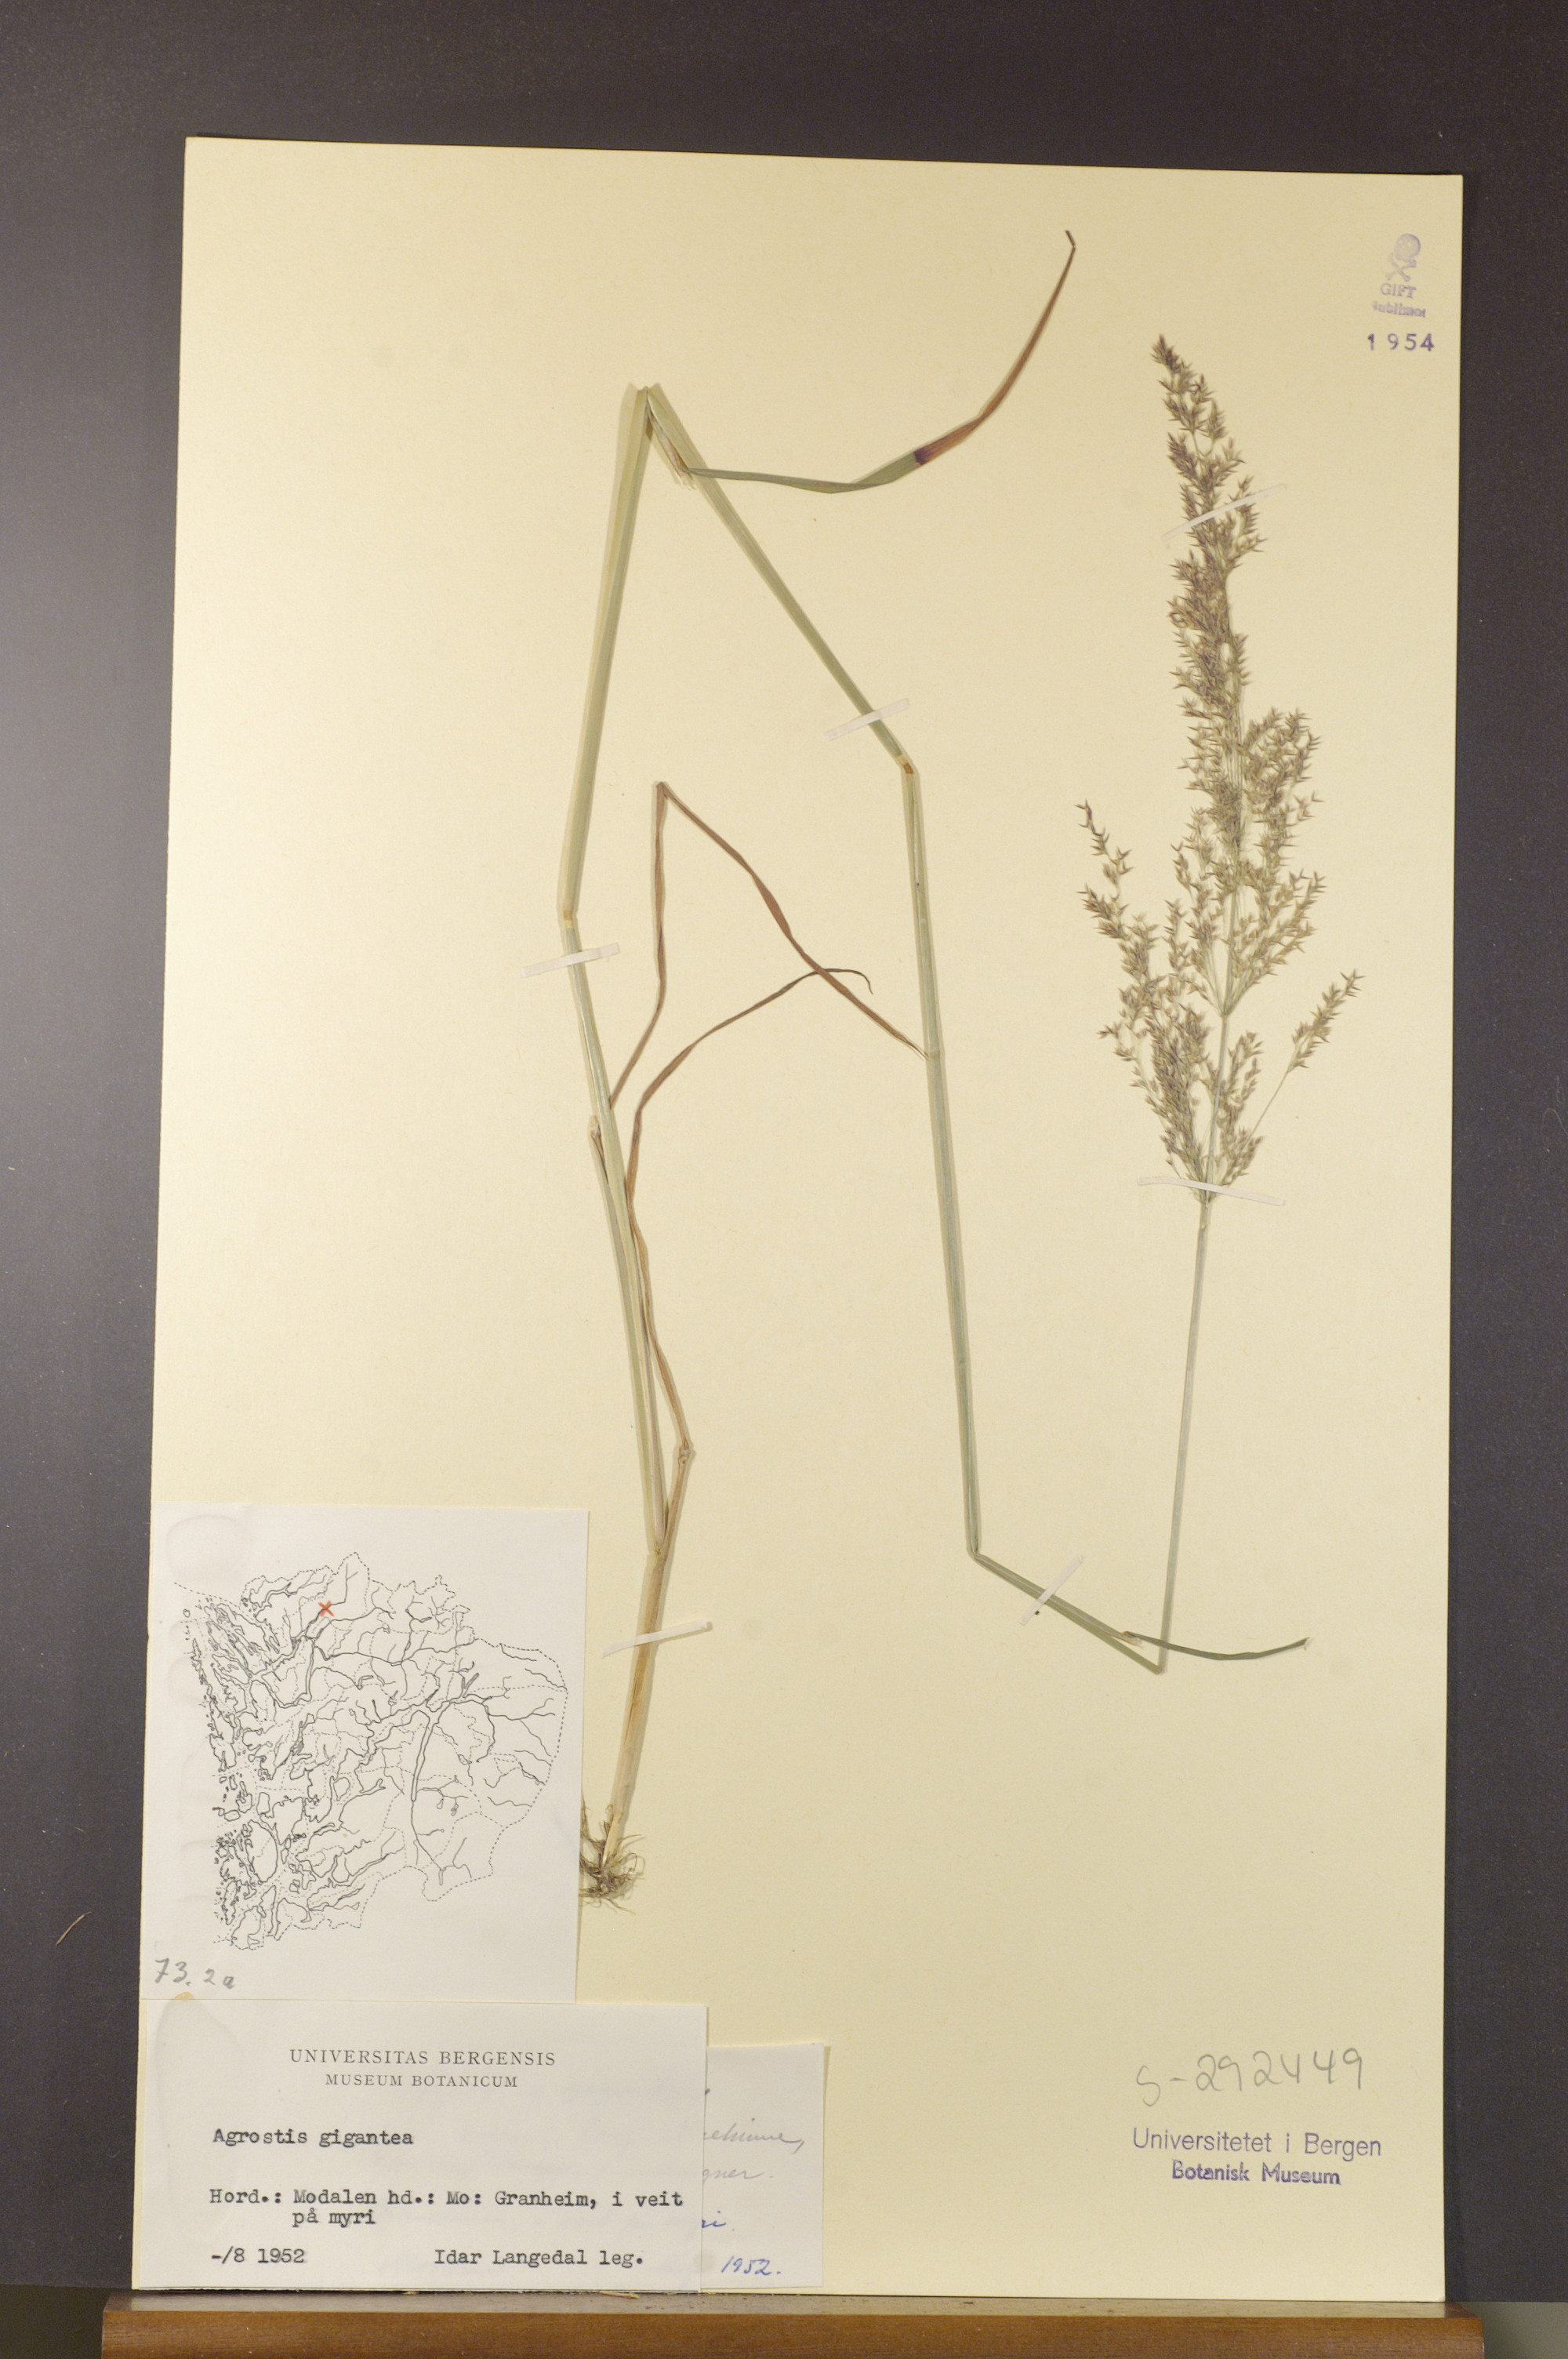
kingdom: Plantae
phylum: Tracheophyta
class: Liliopsida
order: Poales
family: Poaceae
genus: Agrostis
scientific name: Agrostis gigantea
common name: Black bent
